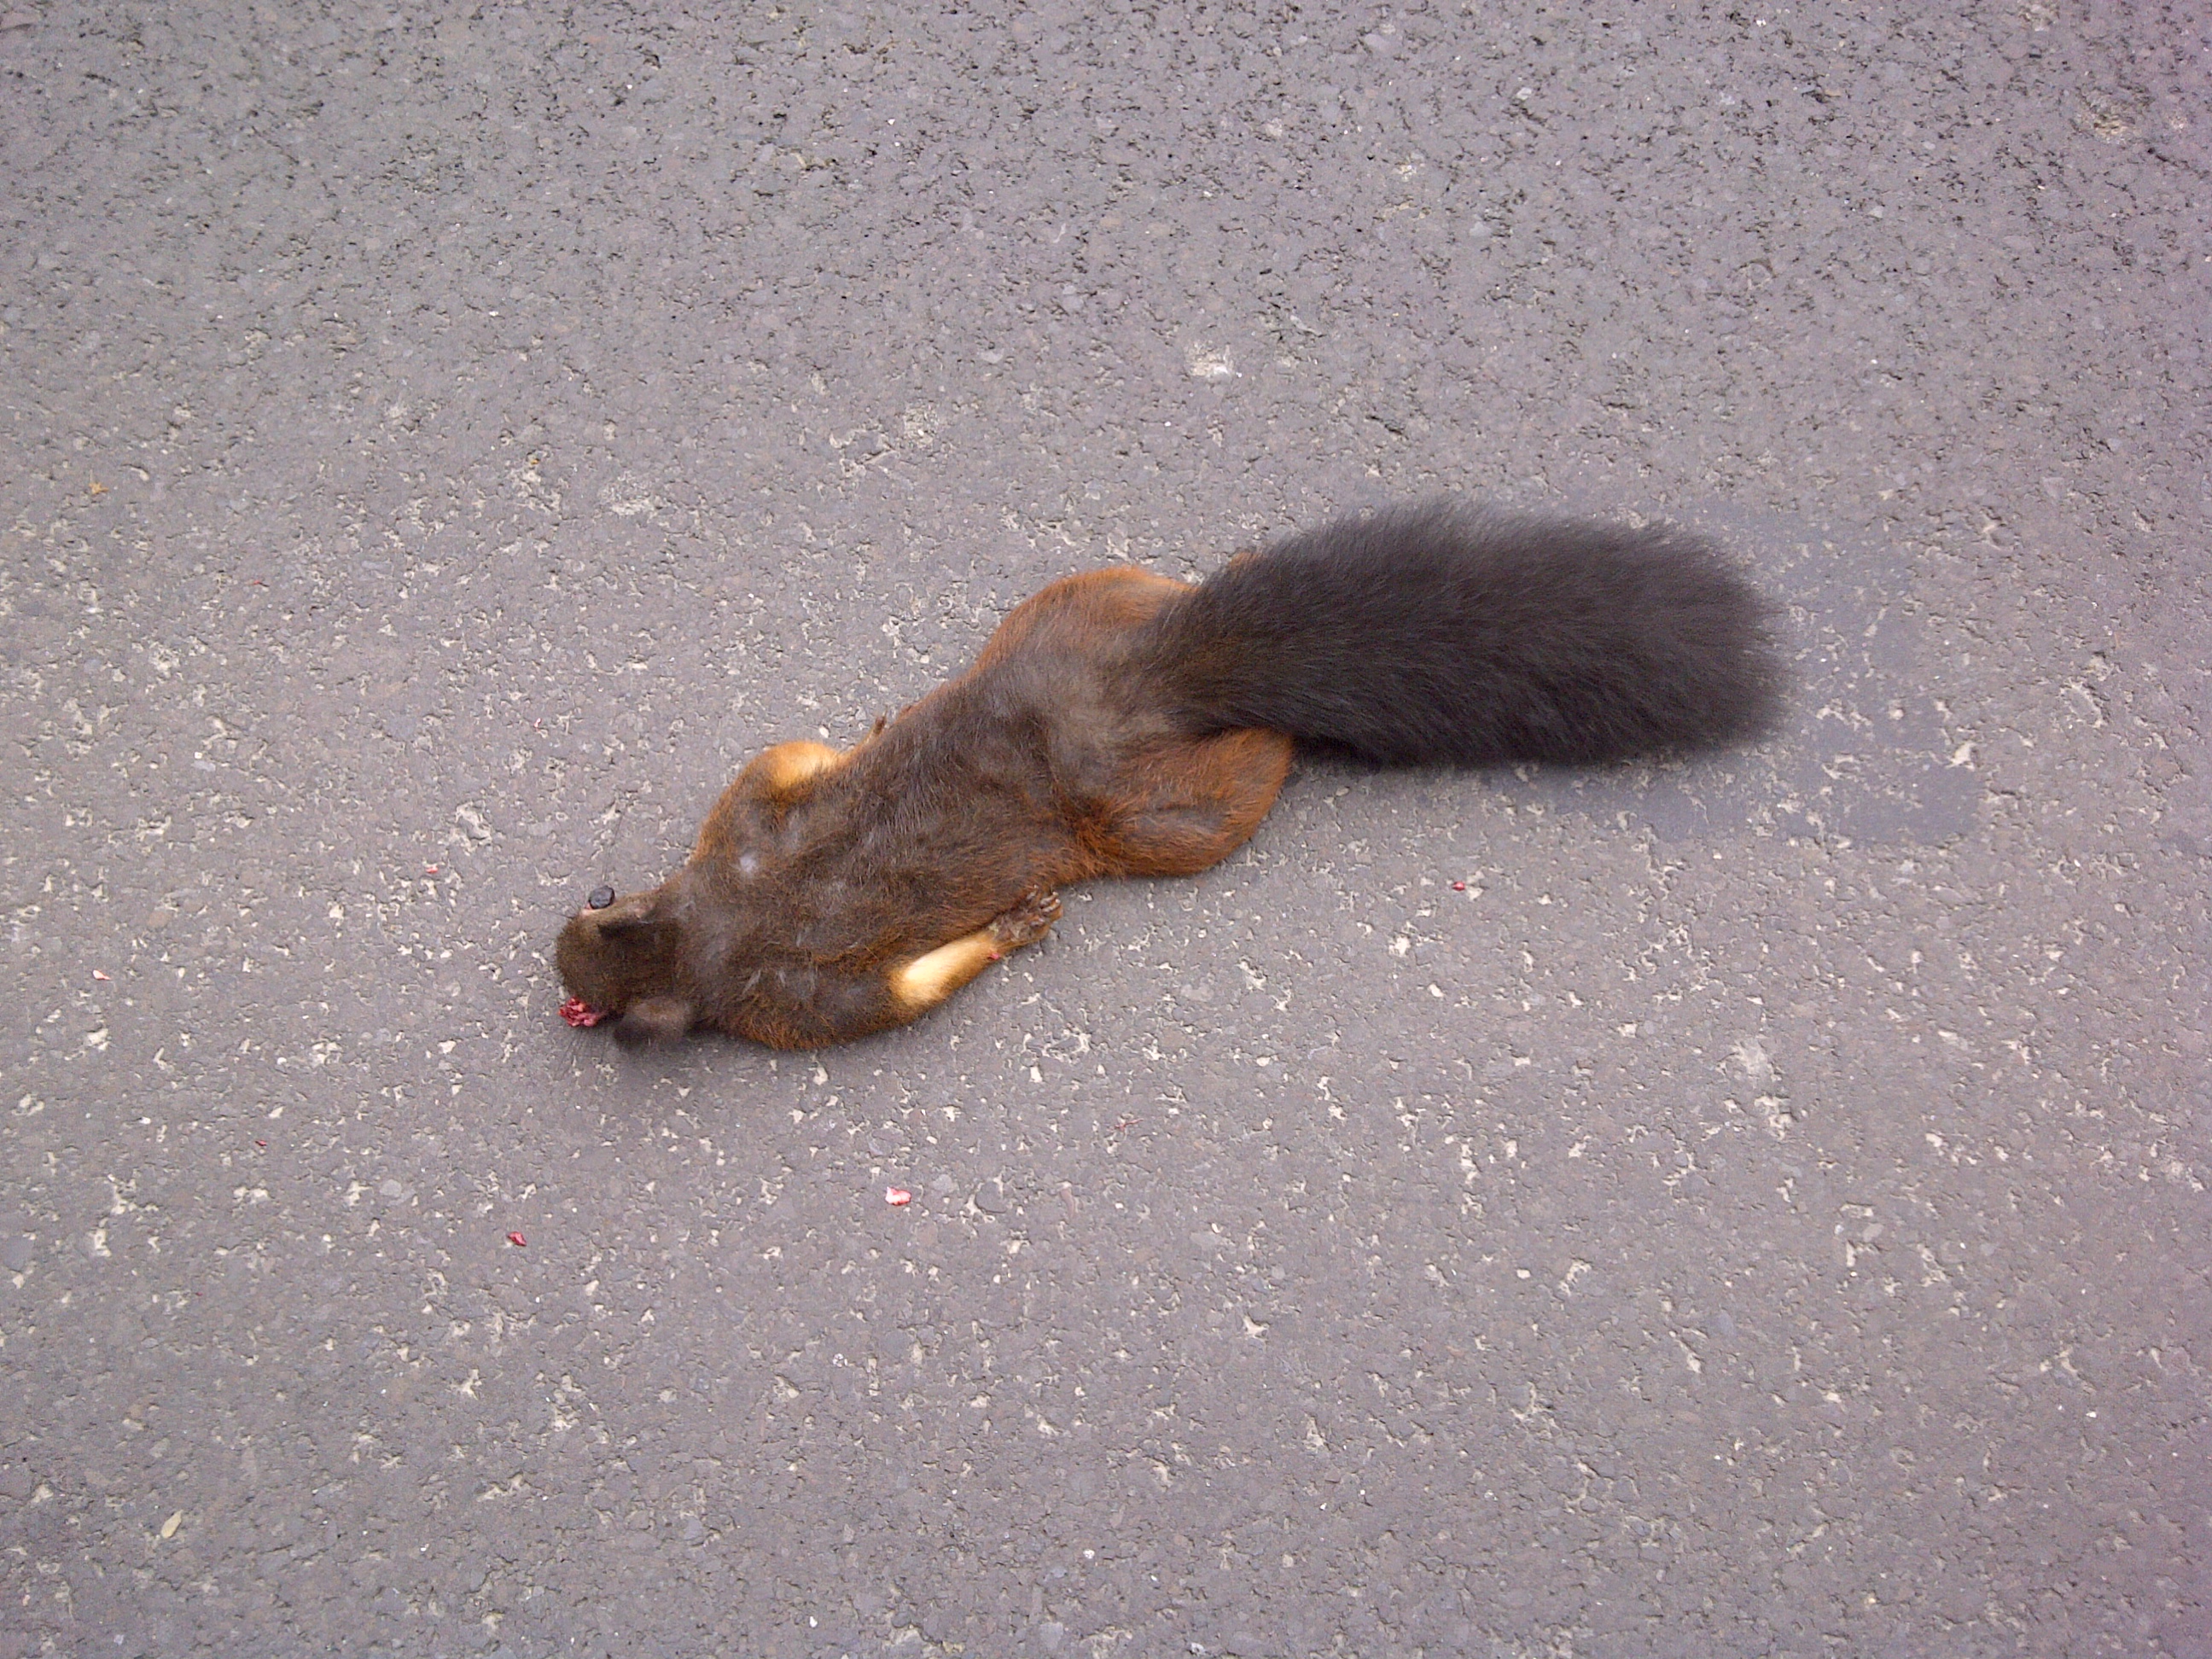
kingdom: Animalia
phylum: Chordata
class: Mammalia
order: Rodentia
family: Sciuridae
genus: Sciurus
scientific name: Sciurus vulgaris
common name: Eurasian red squirrel
